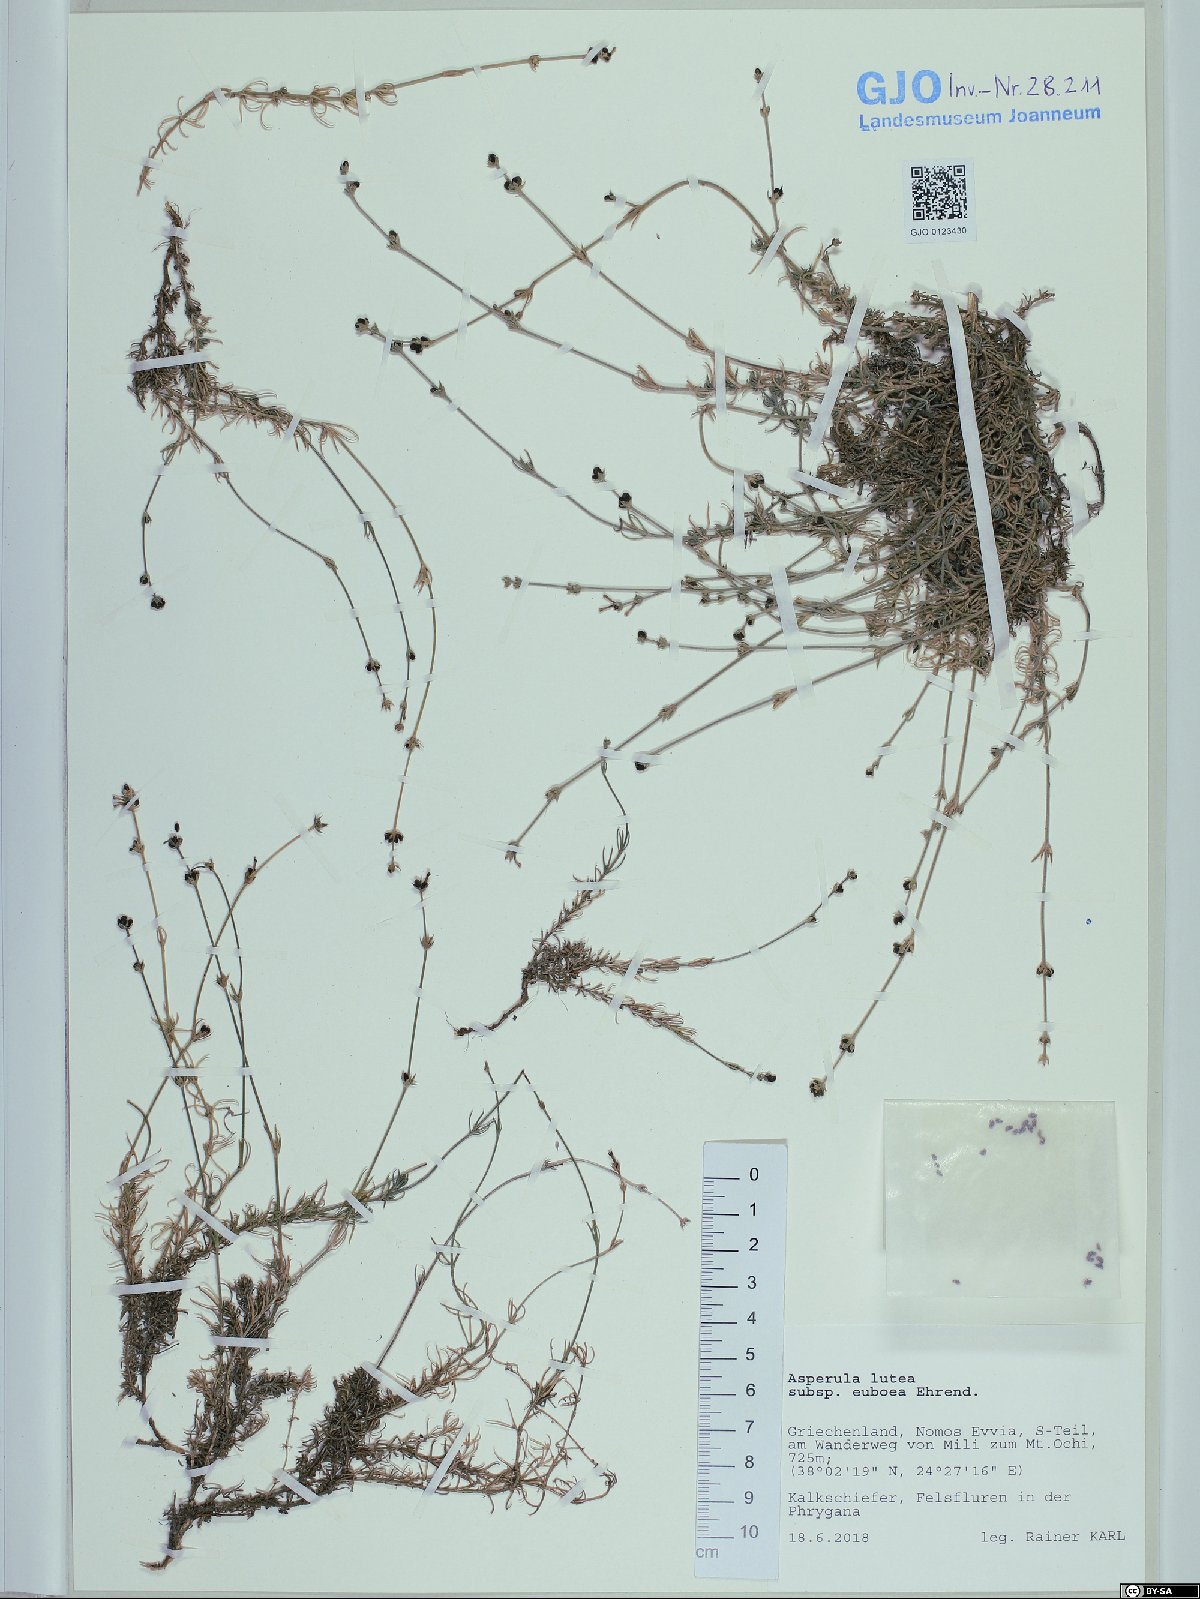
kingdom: Plantae
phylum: Tracheophyta
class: Magnoliopsida
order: Gentianales
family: Rubiaceae
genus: Cynanchica
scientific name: Cynanchica lutea
